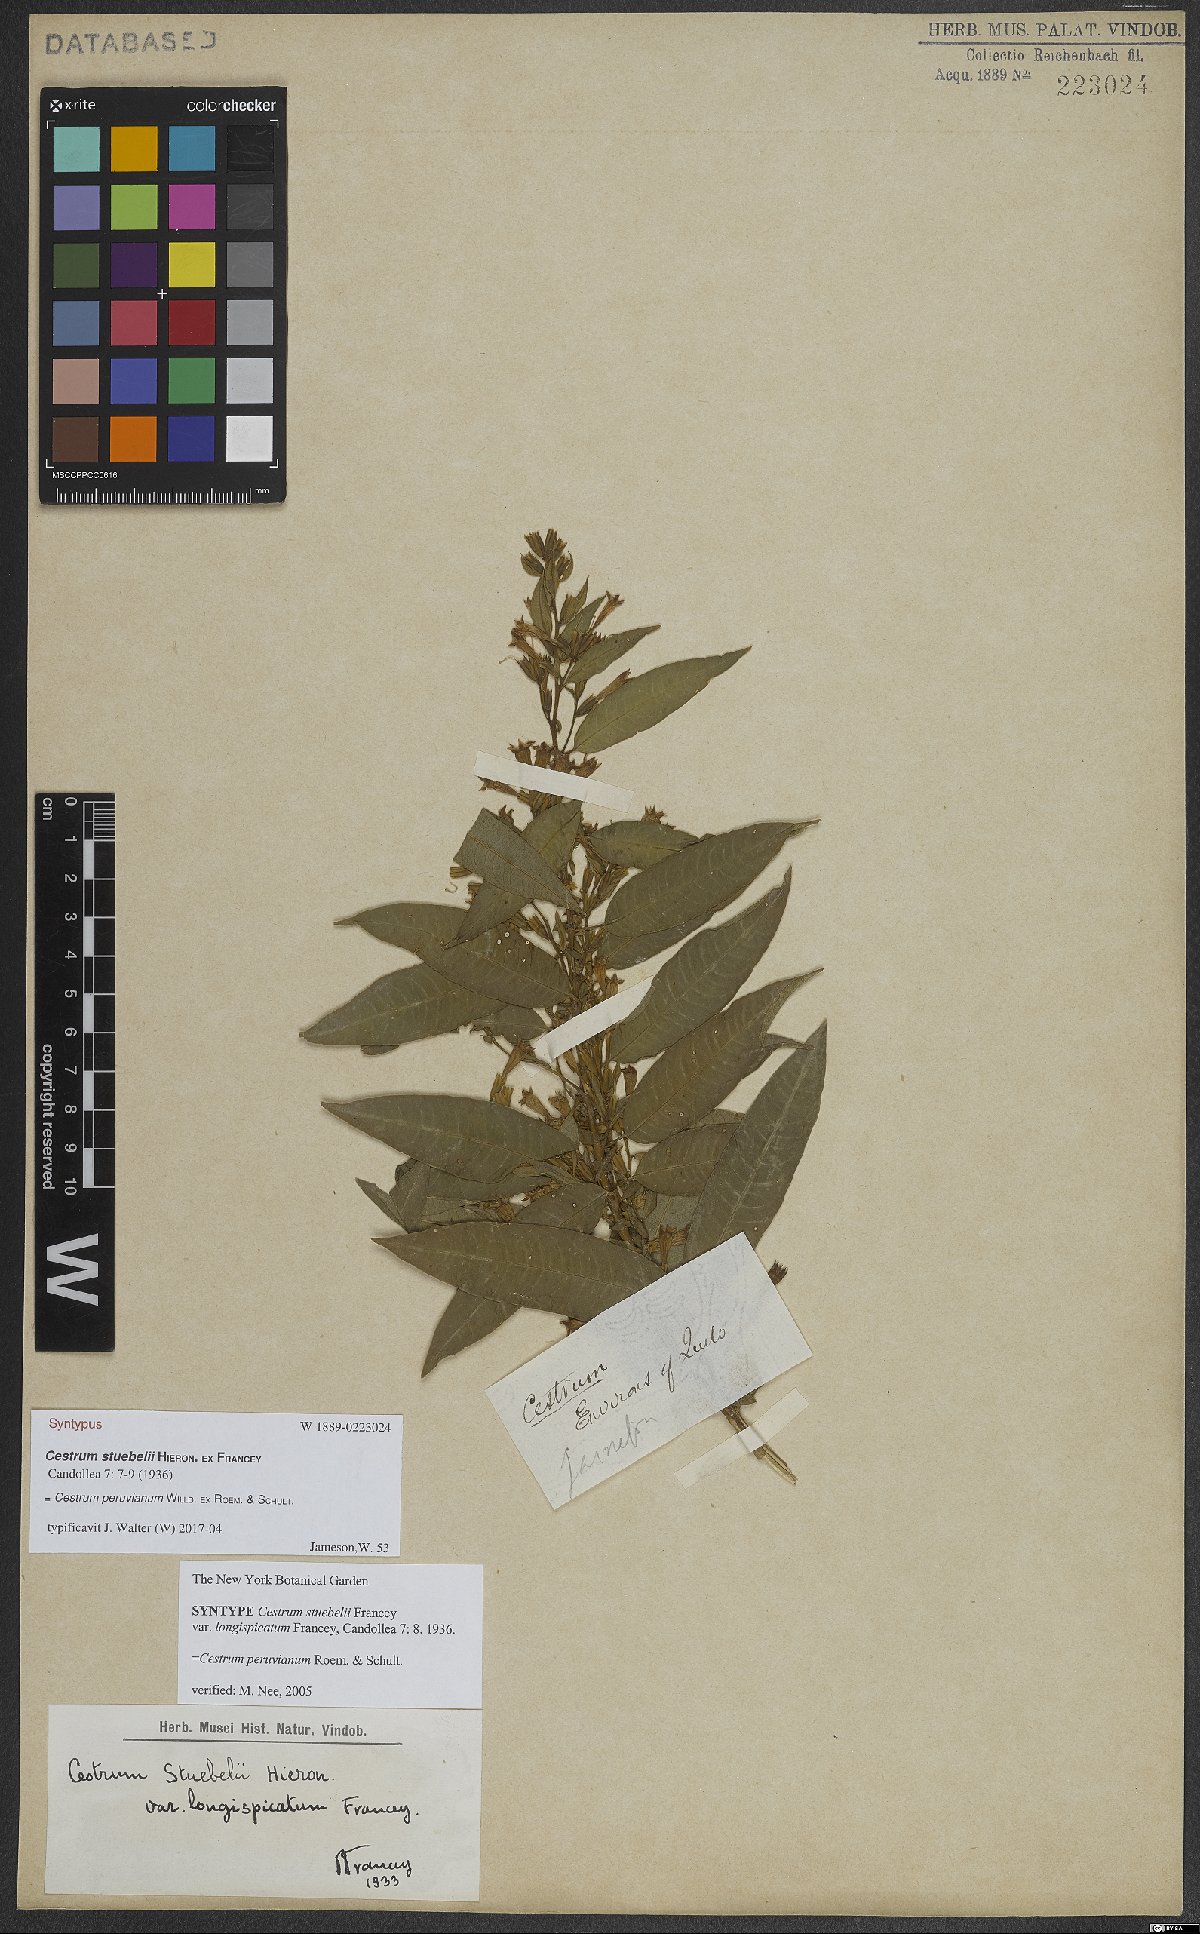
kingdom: Plantae
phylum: Tracheophyta
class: Magnoliopsida
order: Solanales
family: Solanaceae
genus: Cestrum
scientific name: Cestrum peruvianum
